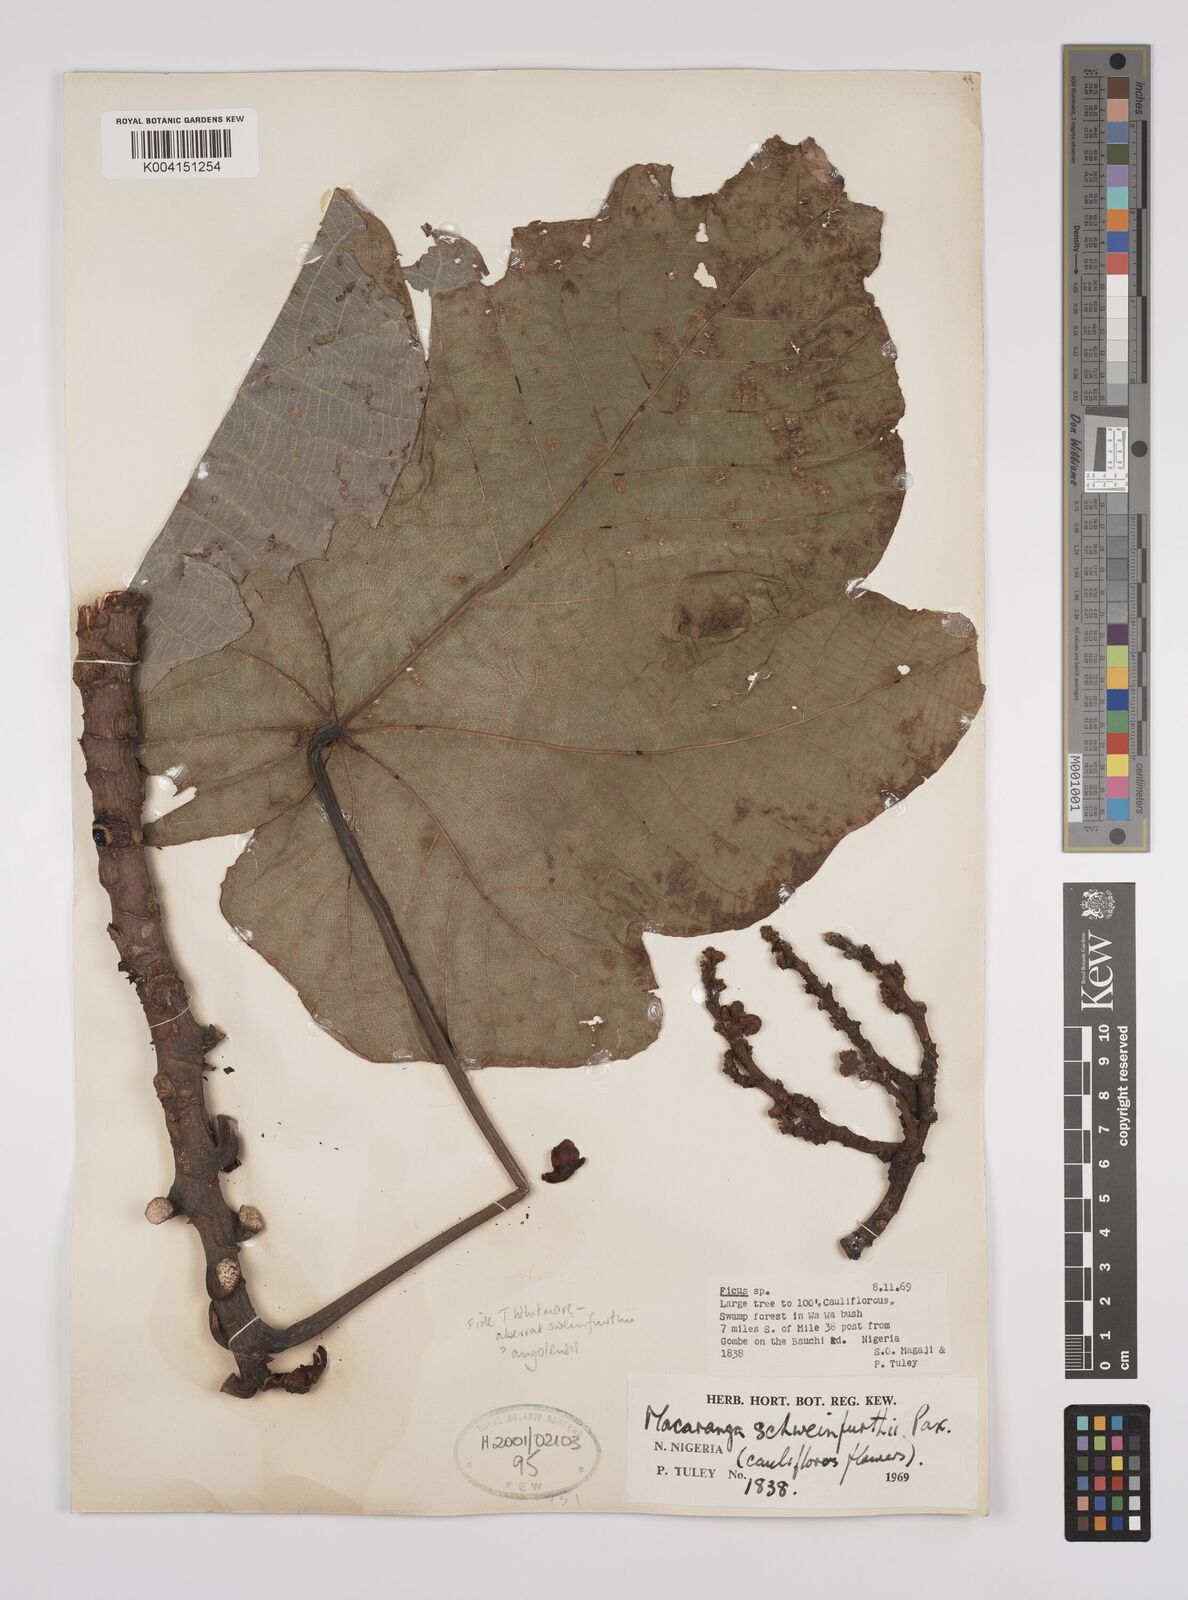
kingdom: Plantae
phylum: Tracheophyta
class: Magnoliopsida
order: Malpighiales
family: Euphorbiaceae
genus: Macaranga
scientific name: Macaranga
